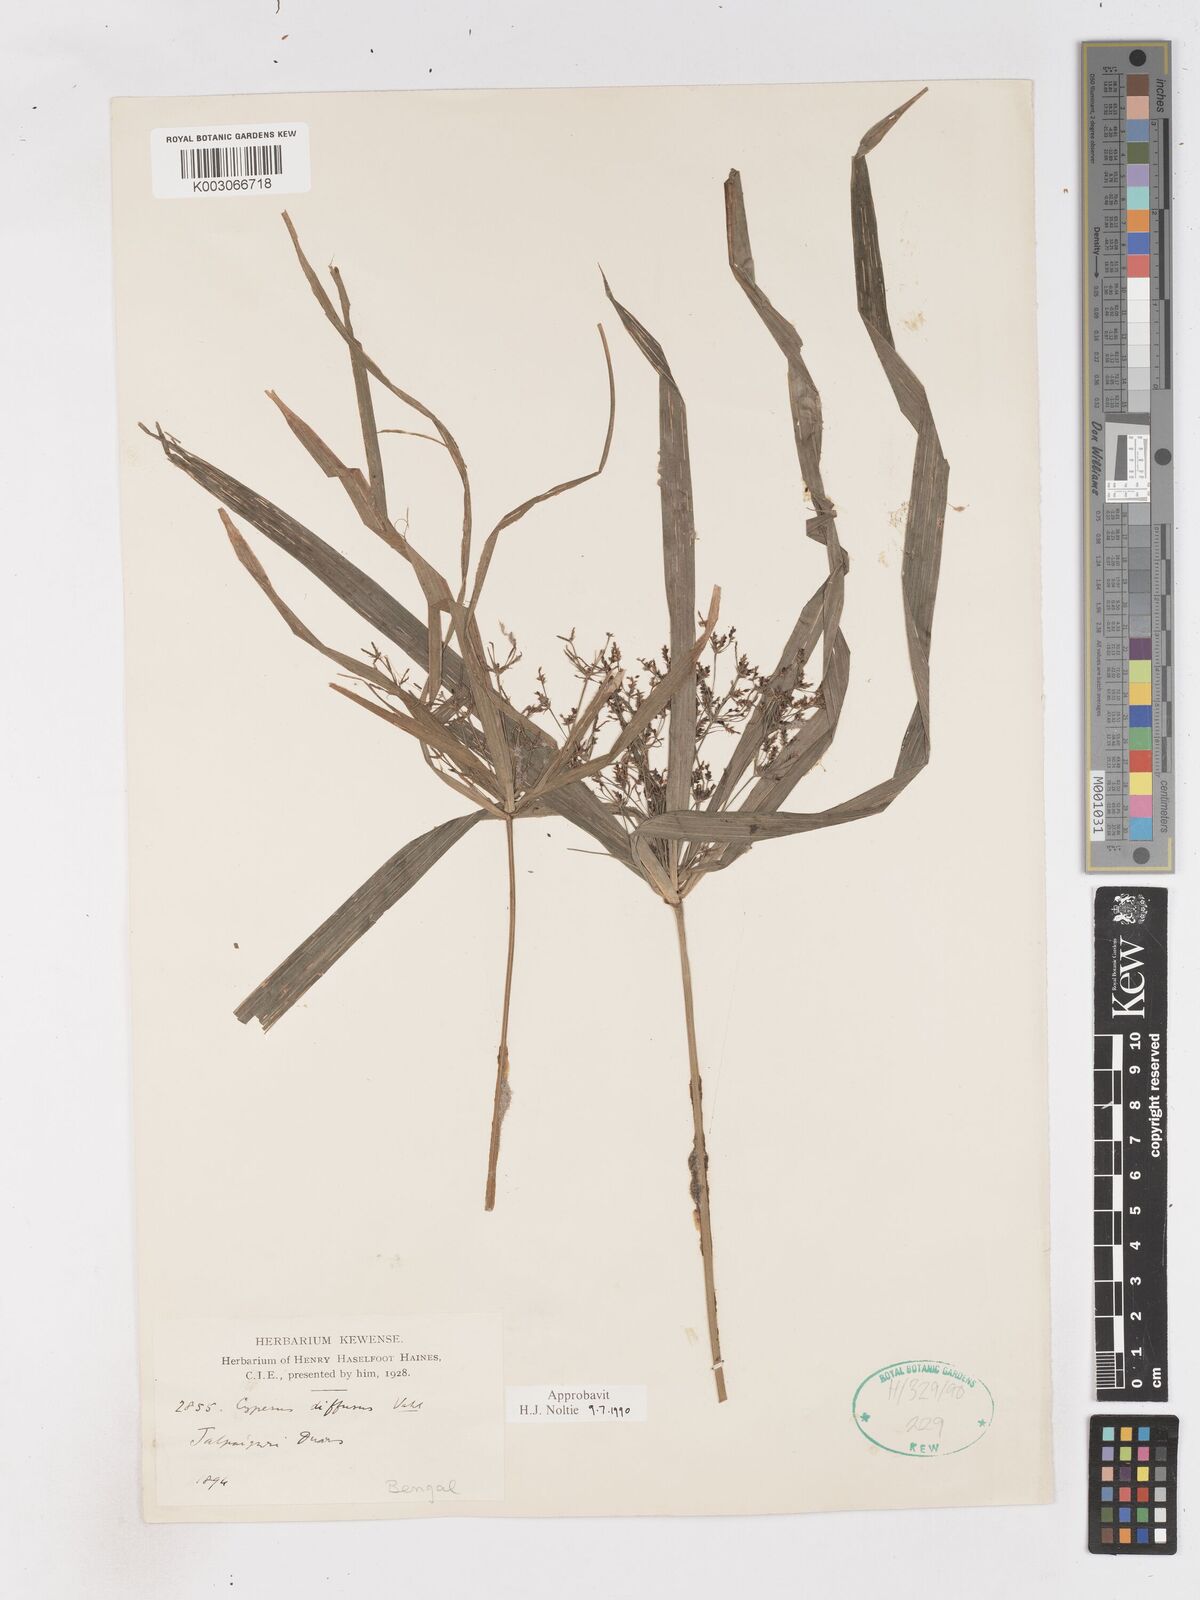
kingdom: Plantae
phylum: Tracheophyta
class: Liliopsida
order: Poales
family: Cyperaceae
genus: Cyperus
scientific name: Cyperus diffusus
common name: Dwarf umbrella grass
